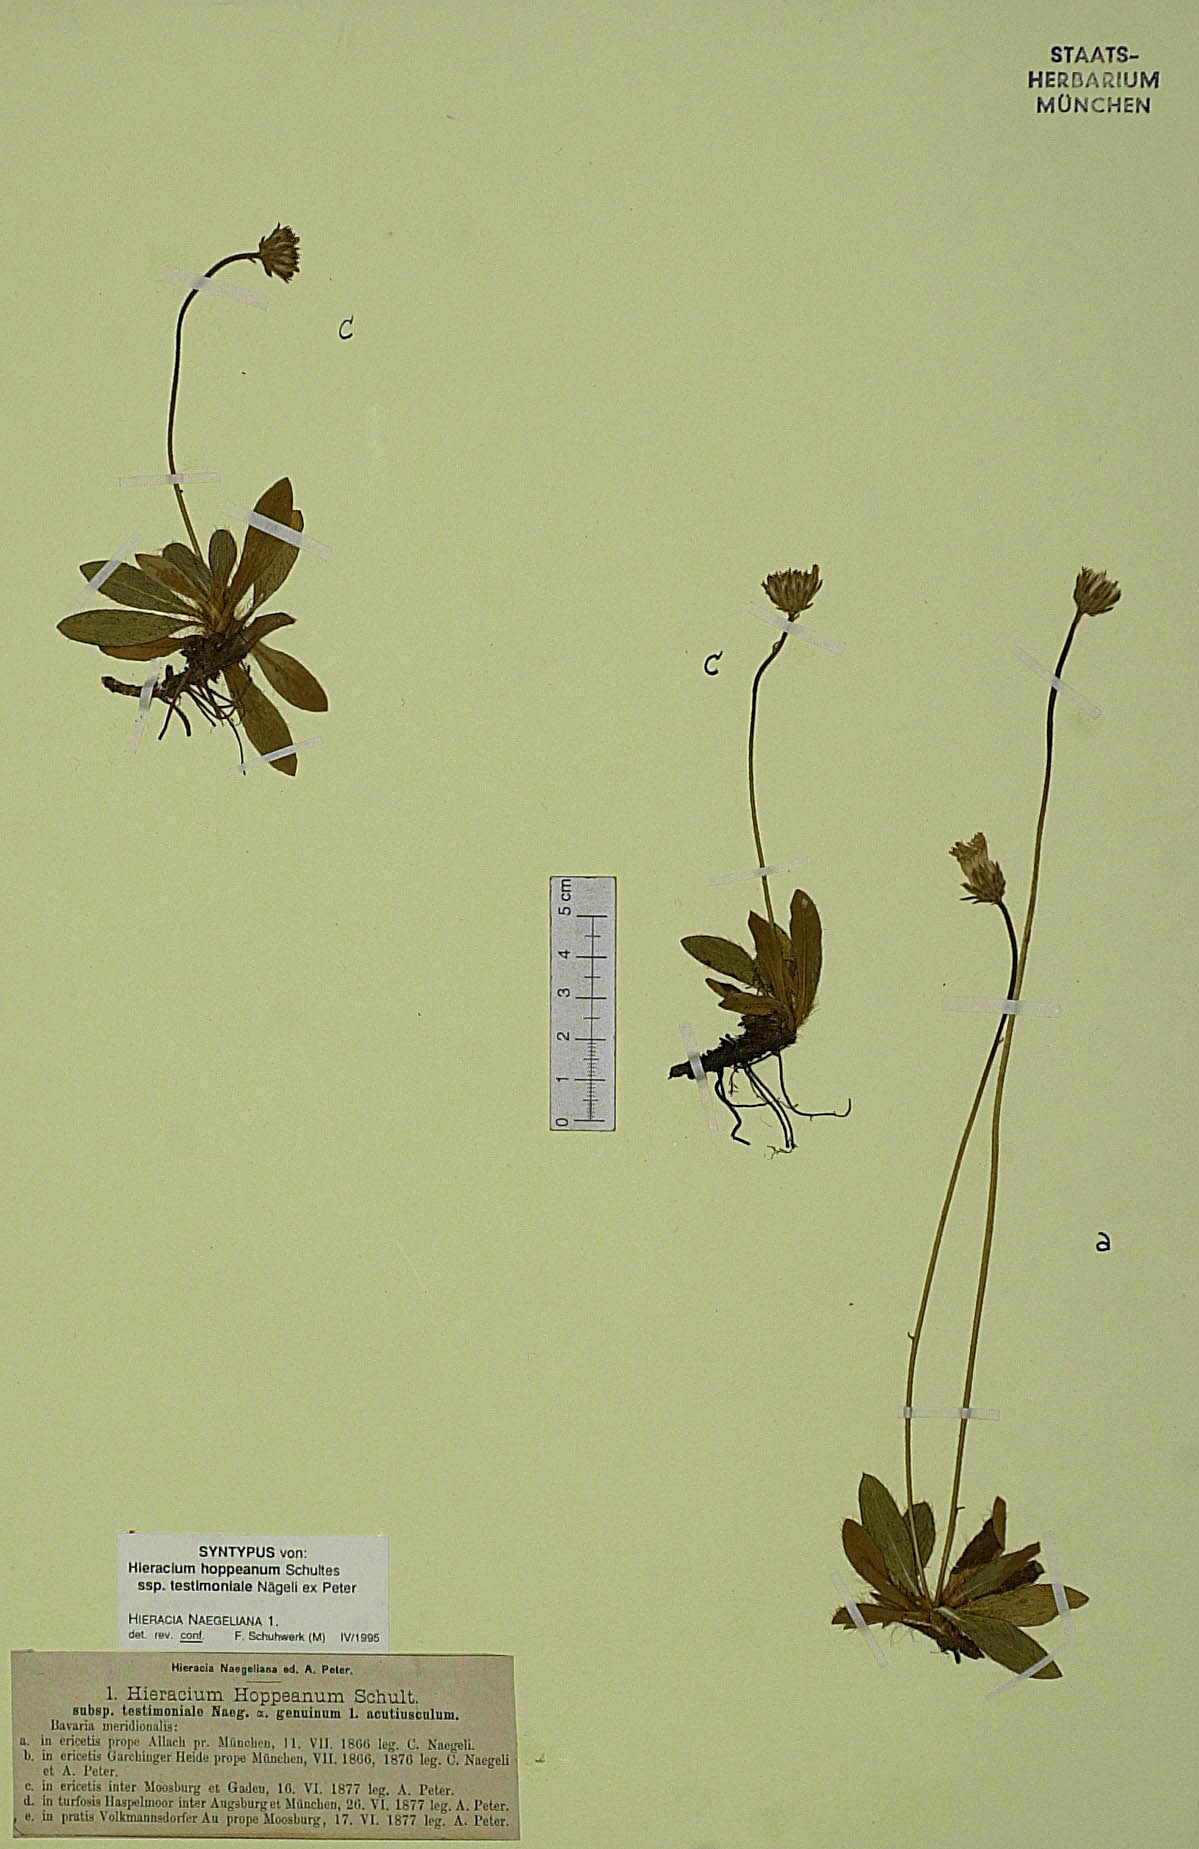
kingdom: Plantae
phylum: Tracheophyta
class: Magnoliopsida
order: Asterales
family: Asteraceae
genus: Pilosella
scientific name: Pilosella leucopsilon
